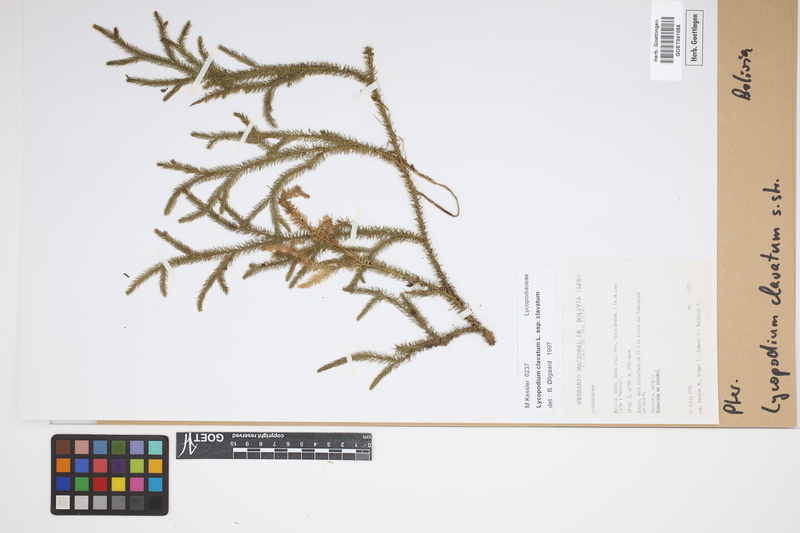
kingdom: Plantae
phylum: Tracheophyta
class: Lycopodiopsida
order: Lycopodiales
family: Lycopodiaceae
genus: Lycopodium
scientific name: Lycopodium clavatum
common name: Stag's-horn clubmoss
